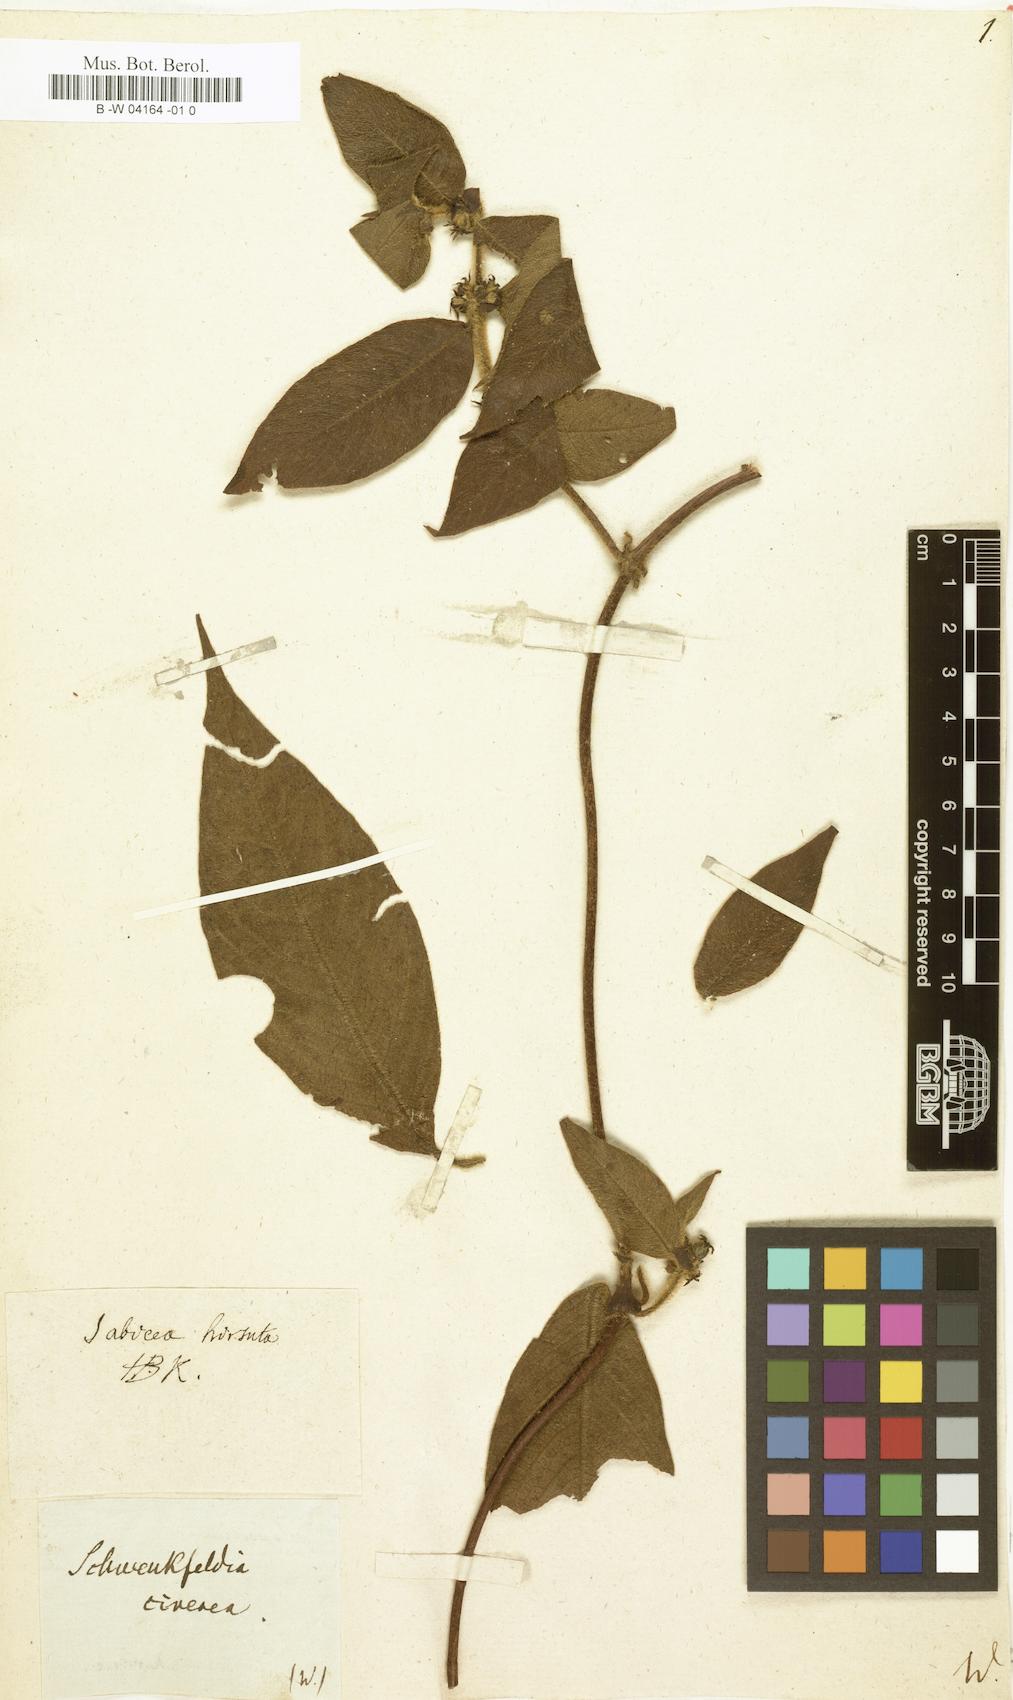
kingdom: Plantae
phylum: Tracheophyta
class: Magnoliopsida
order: Gentianales
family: Rubiaceae
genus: Sabicea
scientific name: Sabicea cinerea
